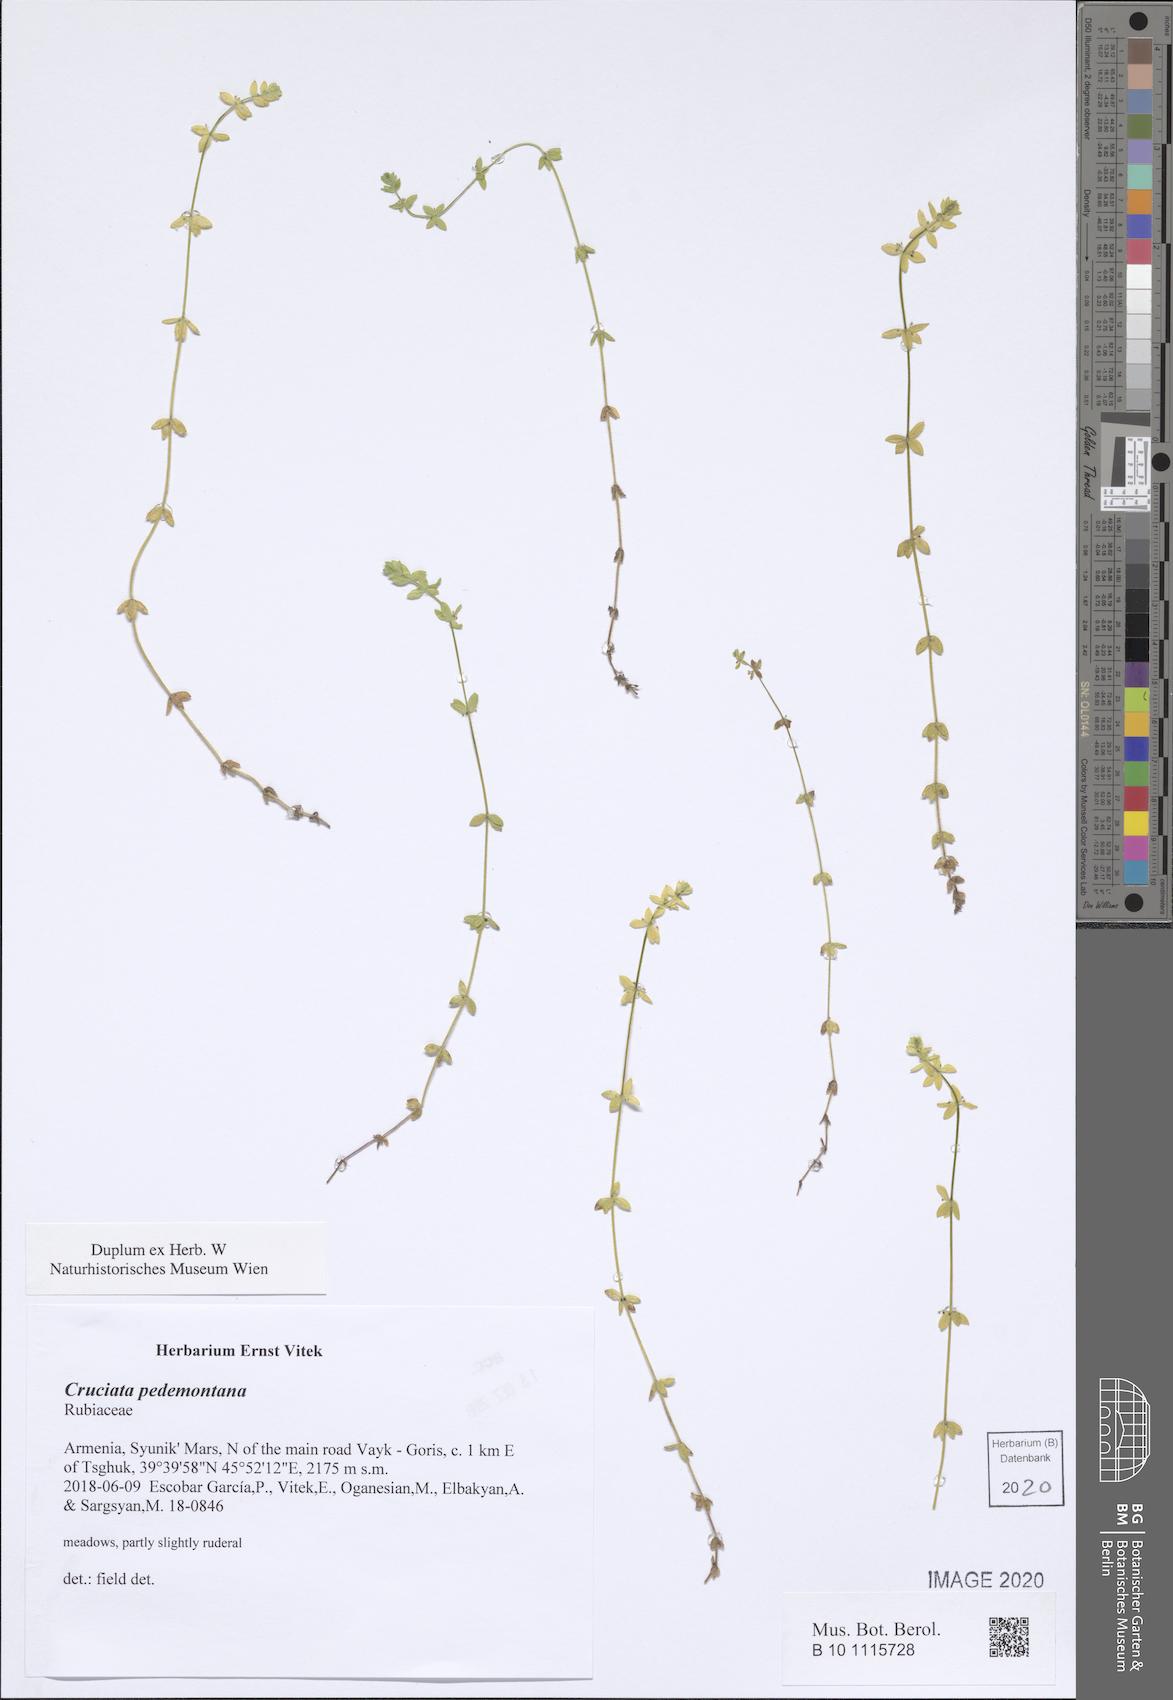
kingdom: Plantae
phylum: Tracheophyta
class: Magnoliopsida
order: Gentianales
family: Rubiaceae
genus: Cruciata
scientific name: Cruciata pedemontana
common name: Piedmont bedstraw
